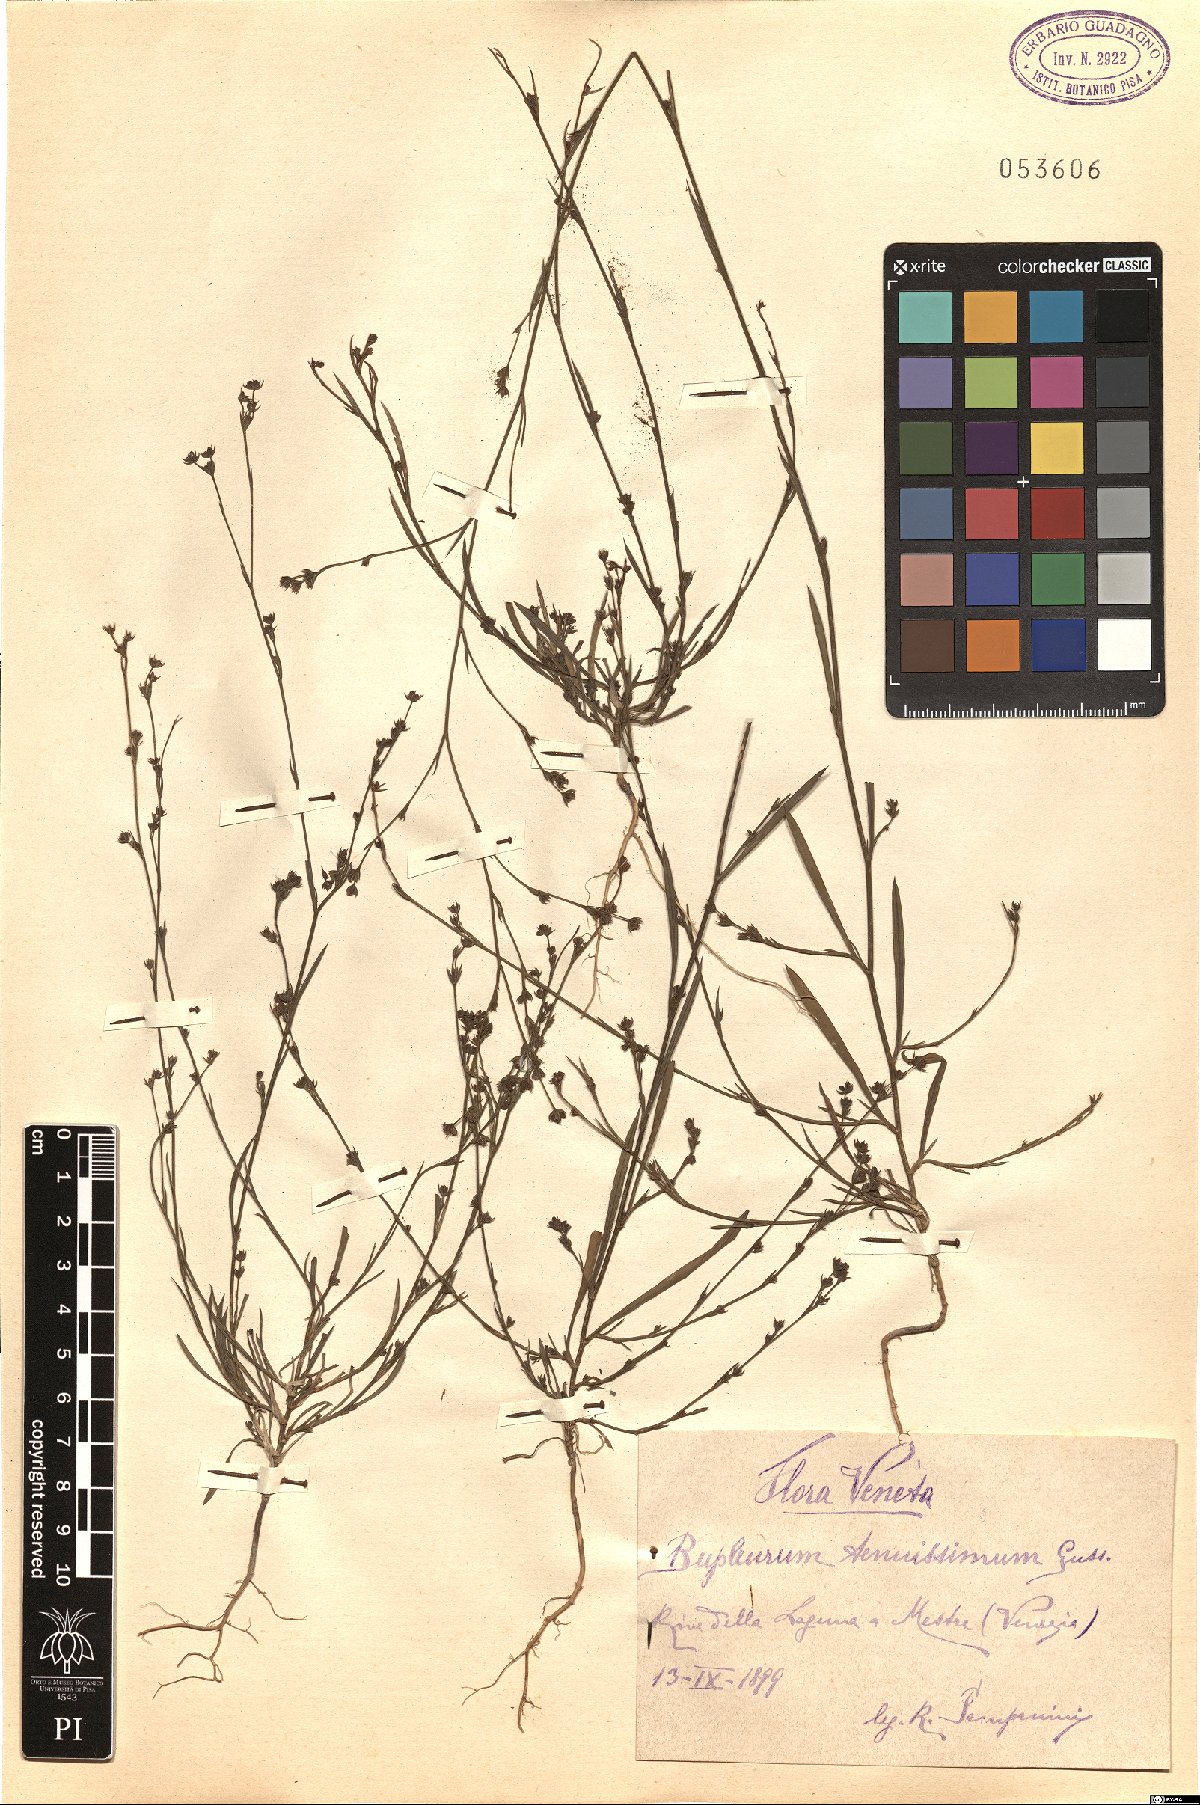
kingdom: Plantae
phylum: Tracheophyta
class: Magnoliopsida
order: Apiales
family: Apiaceae
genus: Bupleurum
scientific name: Bupleurum tenuissimum
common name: Slender hare's-ear
